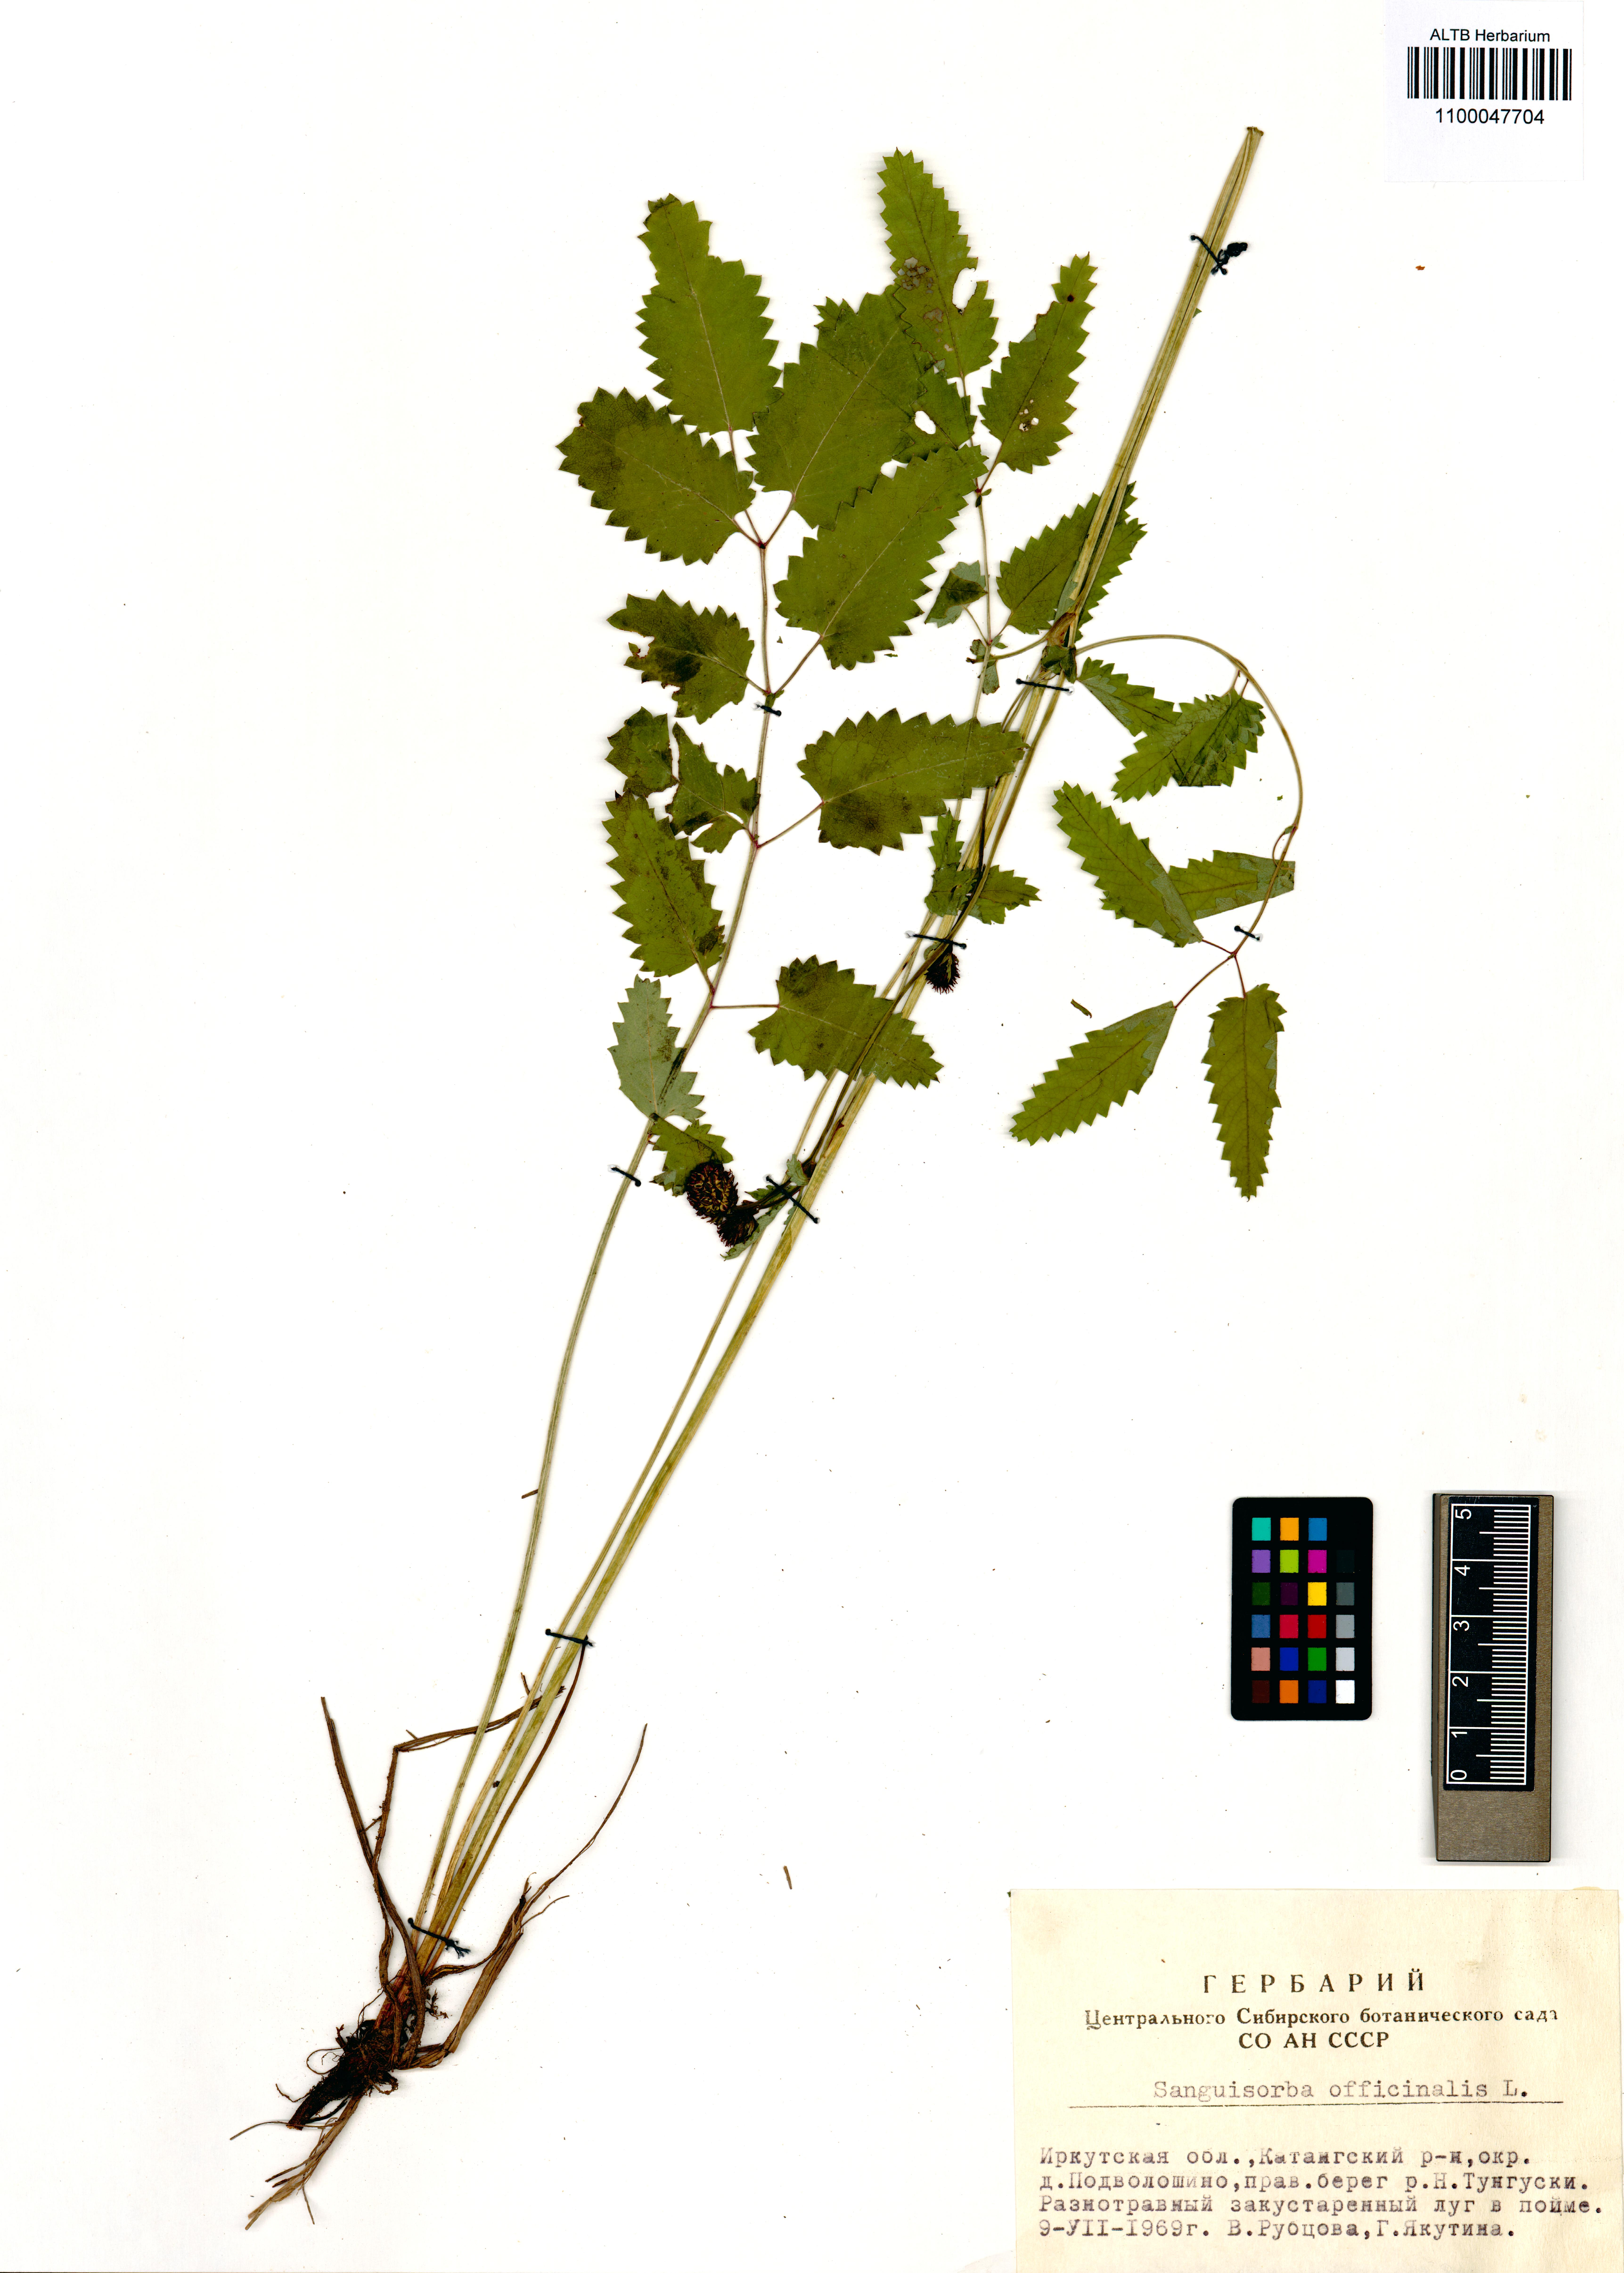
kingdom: Plantae
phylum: Tracheophyta
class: Magnoliopsida
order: Rosales
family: Rosaceae
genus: Sanguisorba
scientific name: Sanguisorba officinalis
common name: Great burnet
